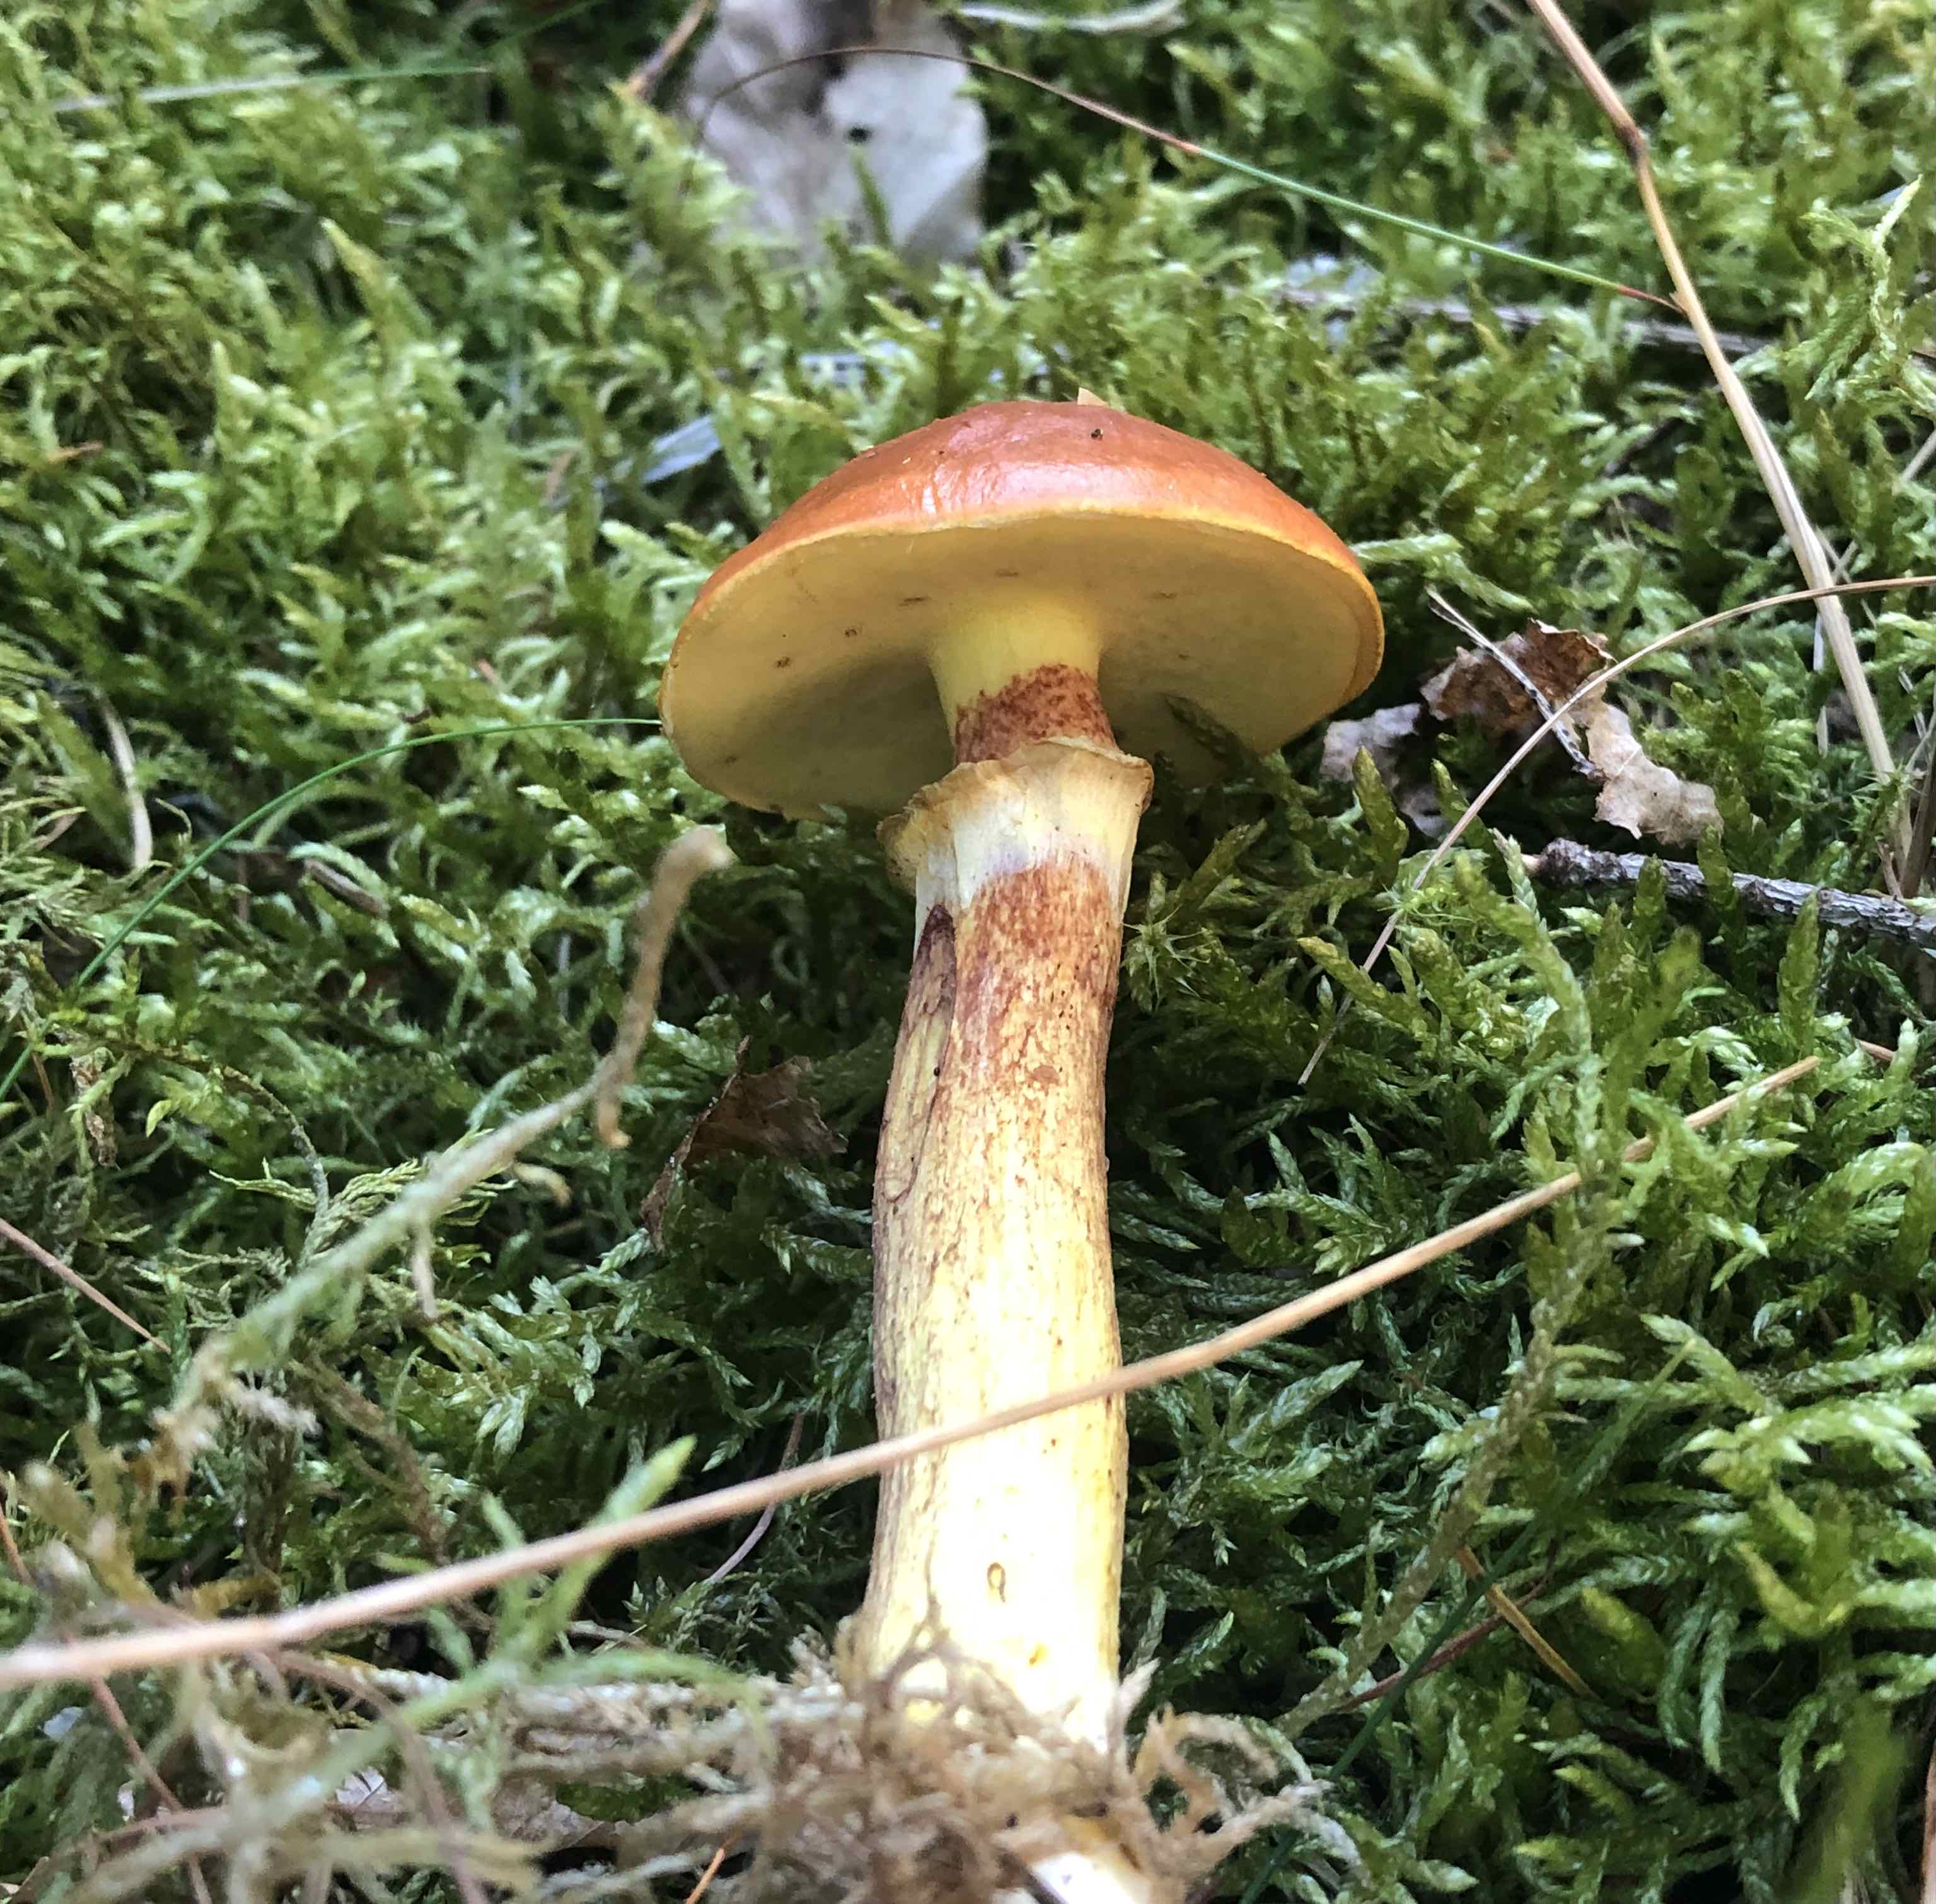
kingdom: Fungi
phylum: Basidiomycota
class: Agaricomycetes
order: Boletales
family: Suillaceae
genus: Suillus
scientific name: Suillus grevillei
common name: lærke-slimrørhat
